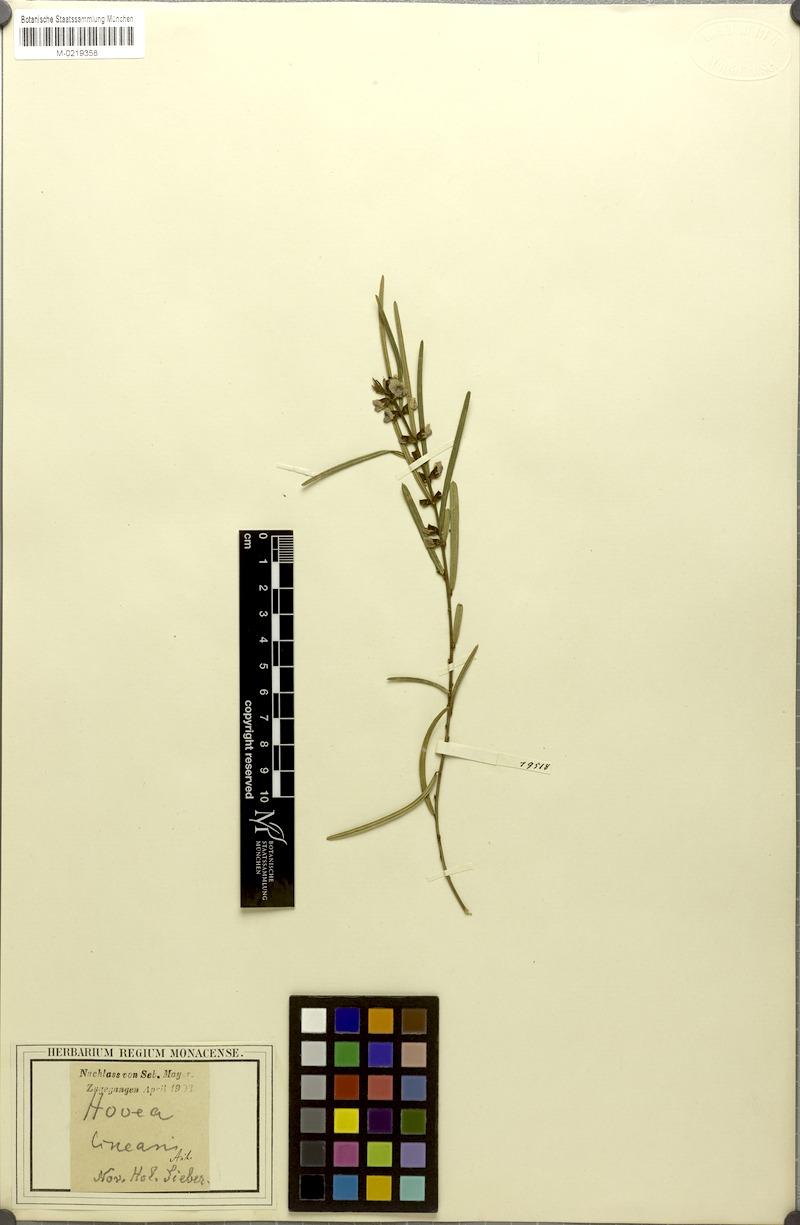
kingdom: Plantae
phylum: Tracheophyta
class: Magnoliopsida
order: Fabales
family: Fabaceae
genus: Hovea
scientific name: Hovea linearis
